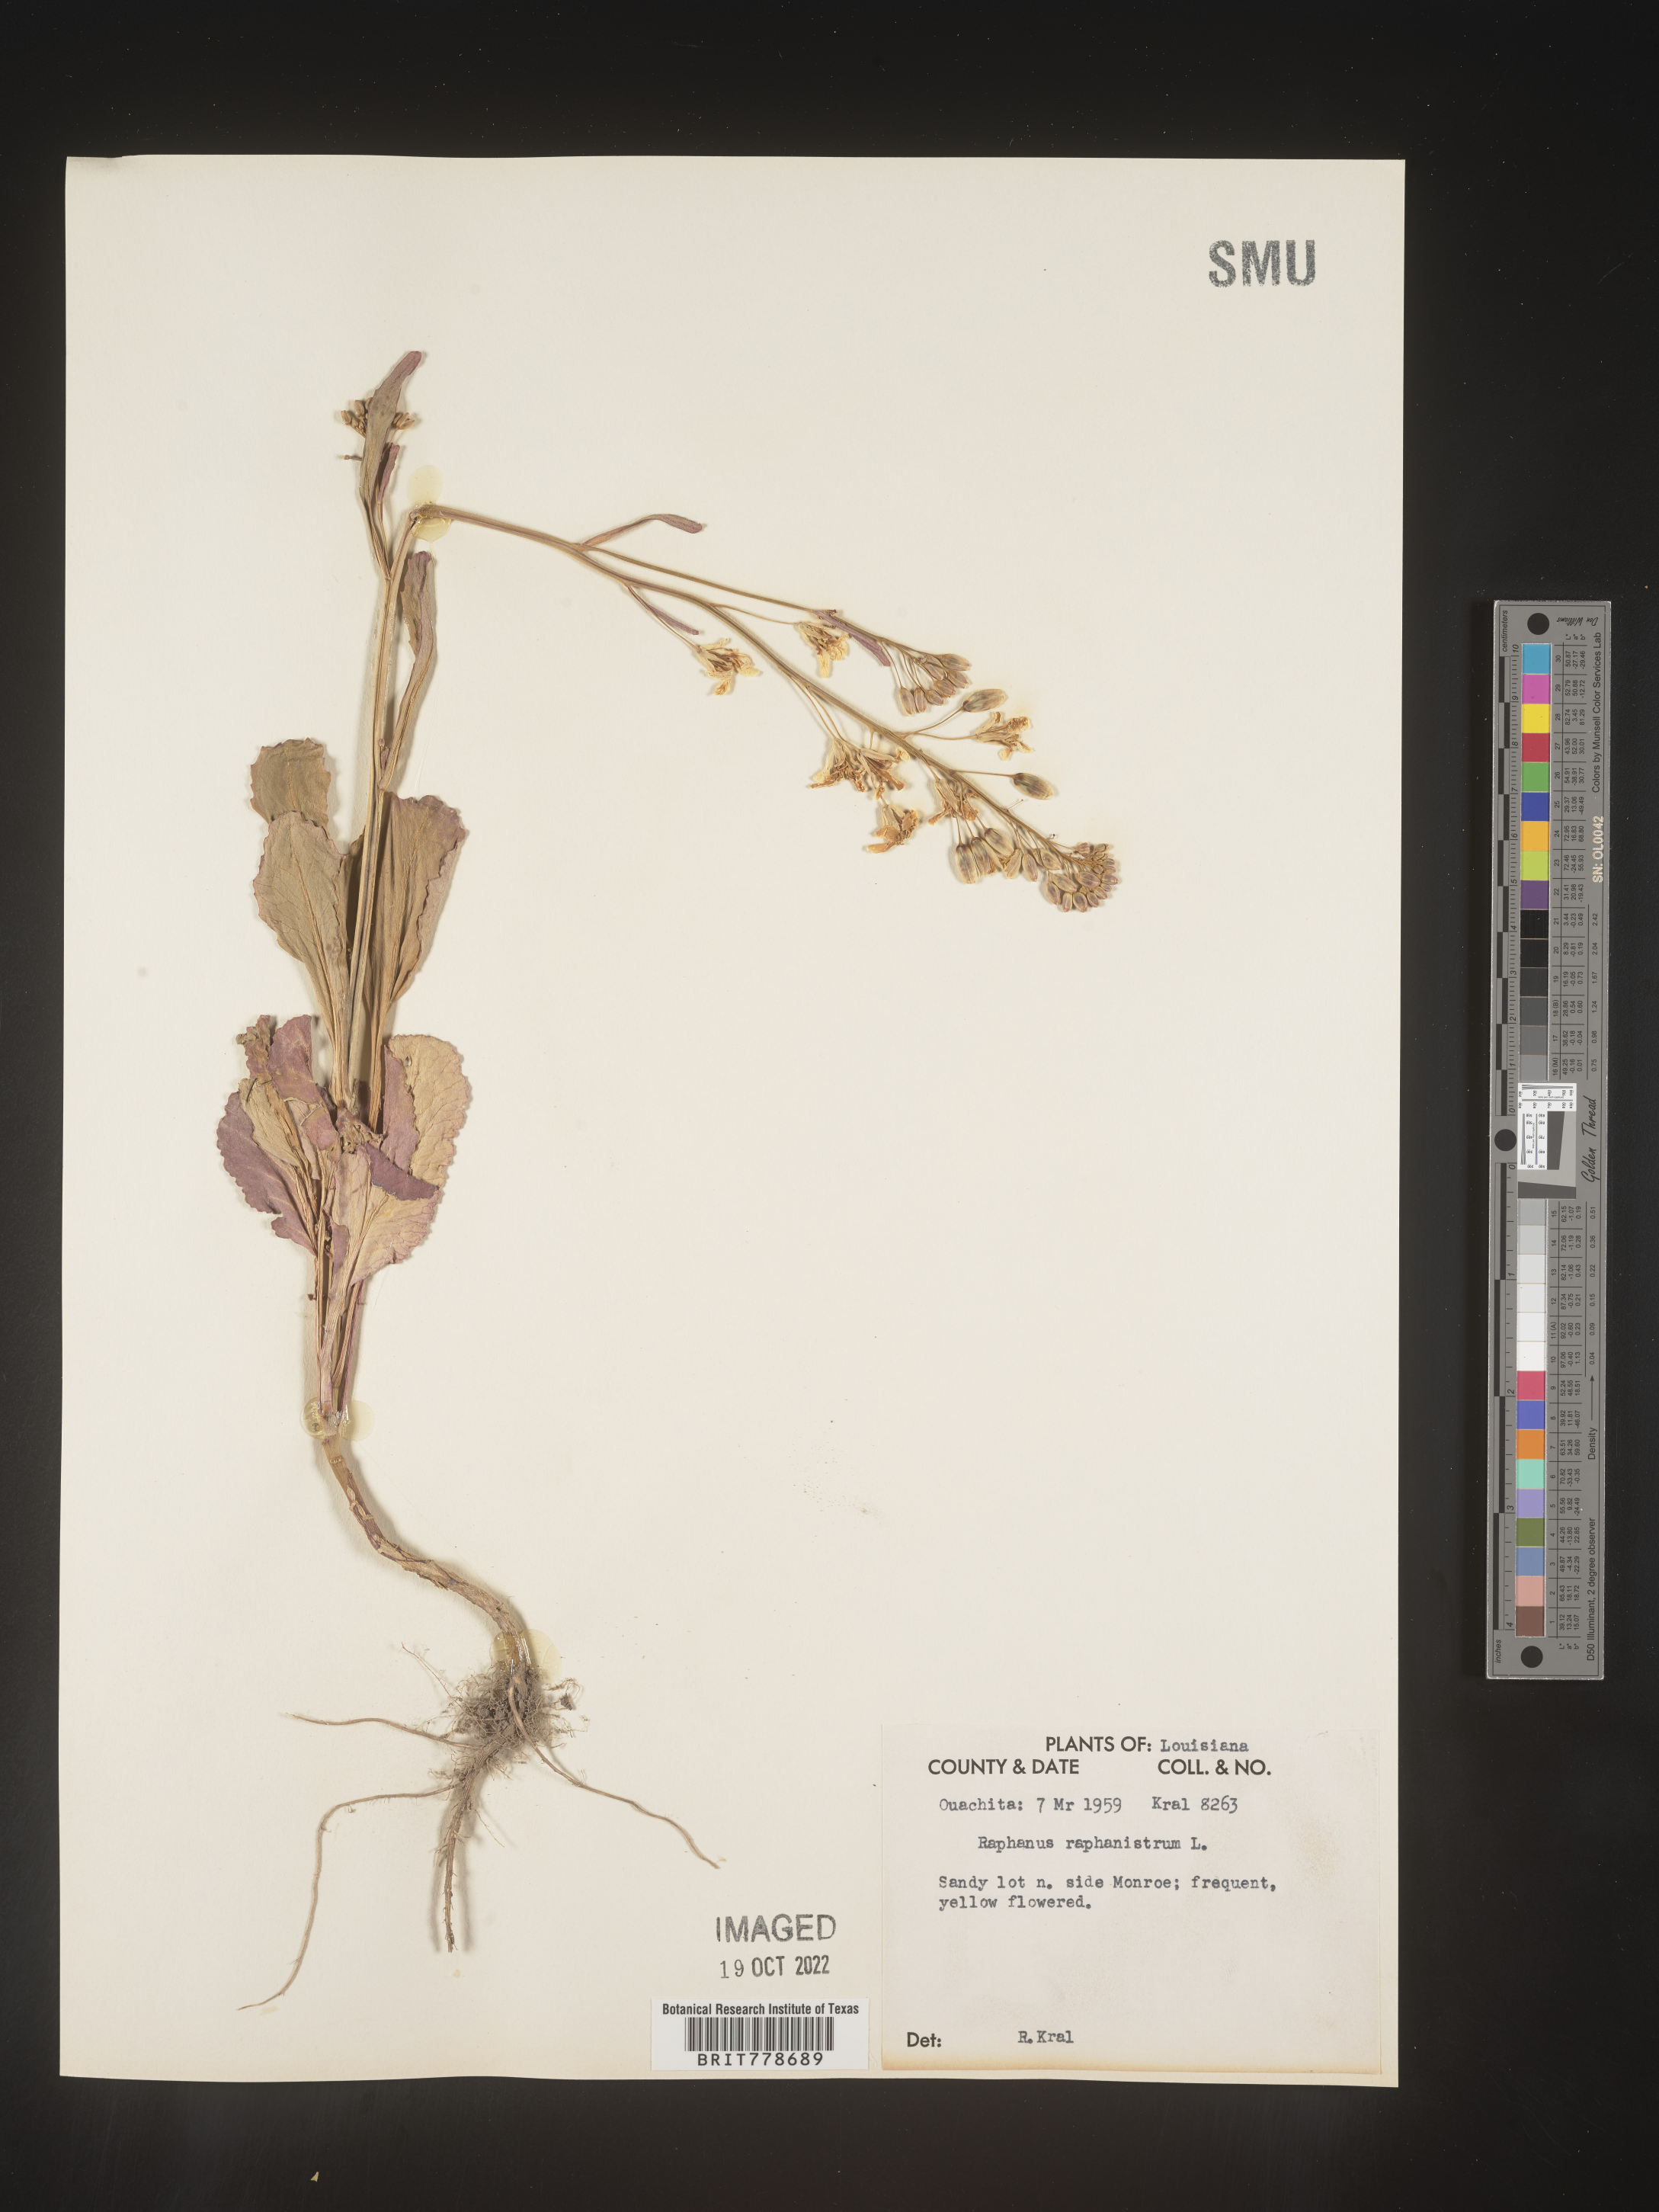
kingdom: Plantae
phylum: Tracheophyta
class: Magnoliopsida
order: Brassicales
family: Brassicaceae
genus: Raphanus
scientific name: Raphanus raphanistrum
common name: Wild radish
